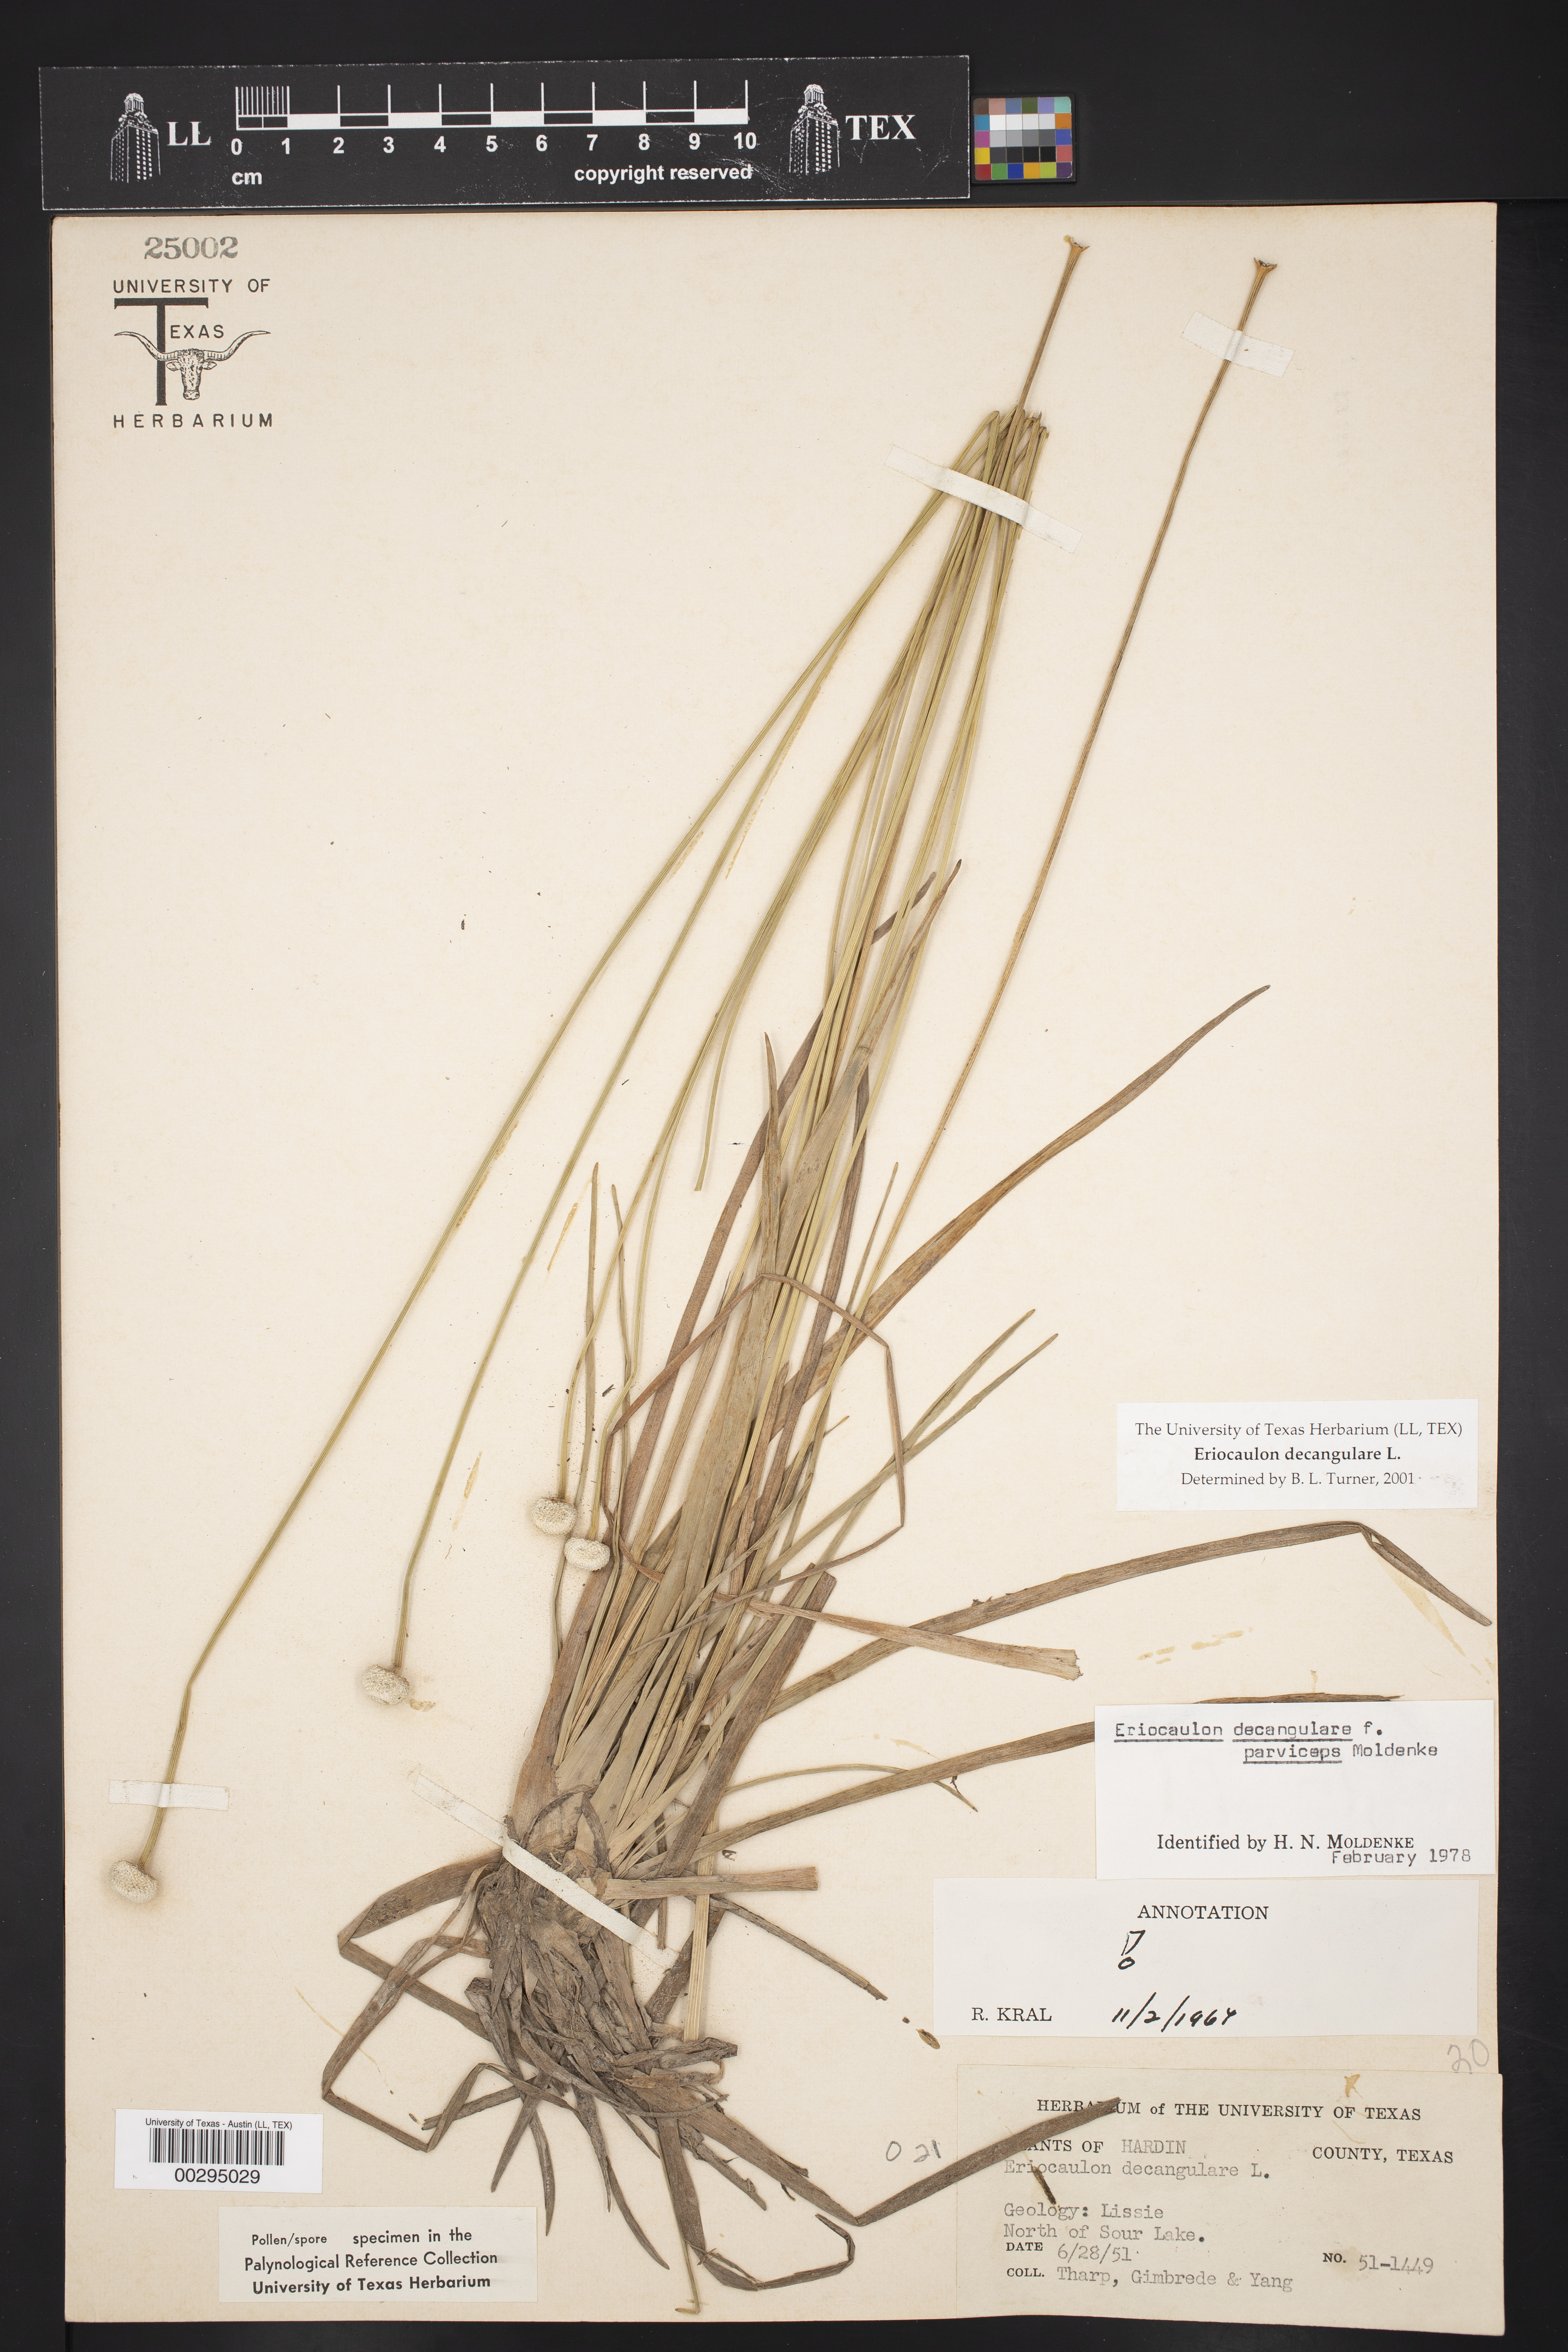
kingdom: Plantae
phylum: Tracheophyta
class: Liliopsida
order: Poales
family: Eriocaulaceae
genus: Eriocaulon
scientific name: Eriocaulon decangulare
